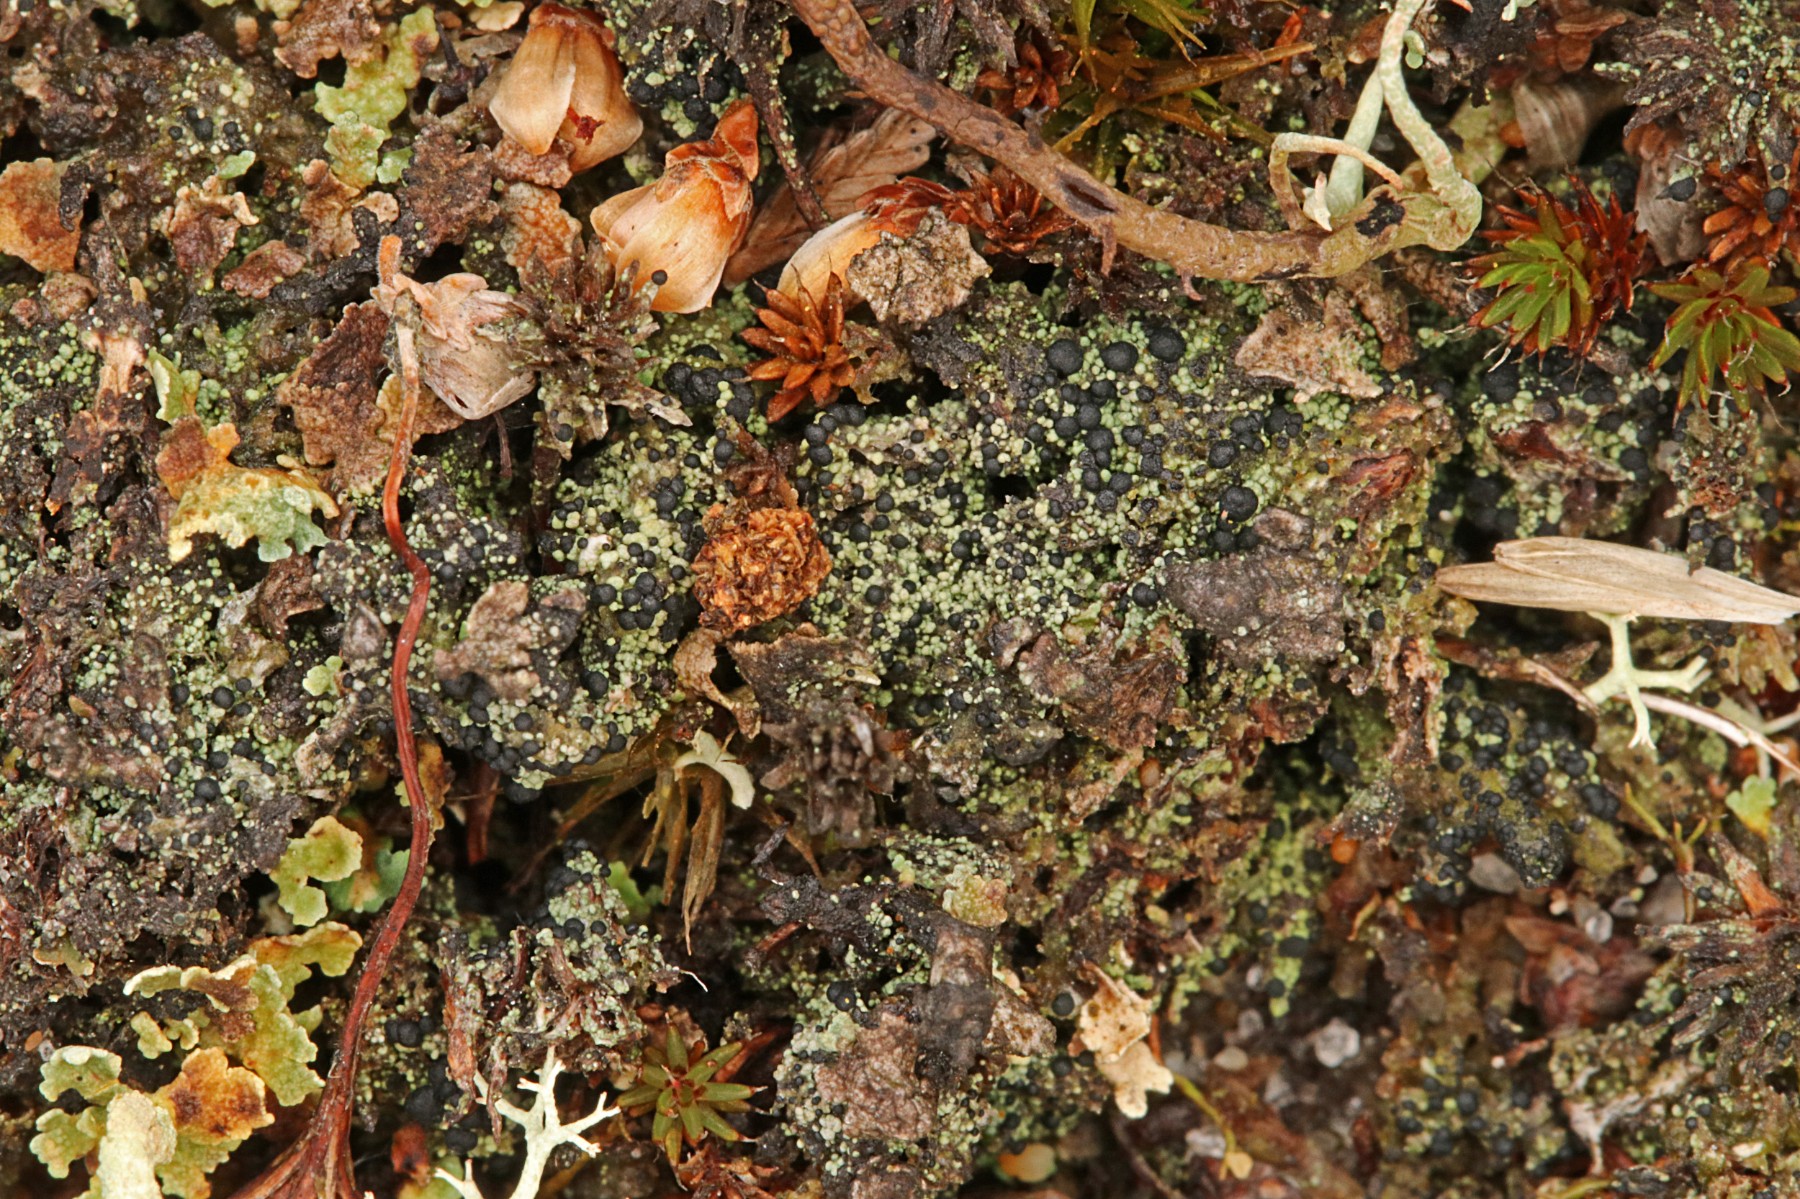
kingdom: Fungi
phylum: Ascomycota
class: Lecanoromycetes
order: Lecanorales
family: Byssolomataceae
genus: Micarea
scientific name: Micarea lignaria
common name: tørve-knaplav
